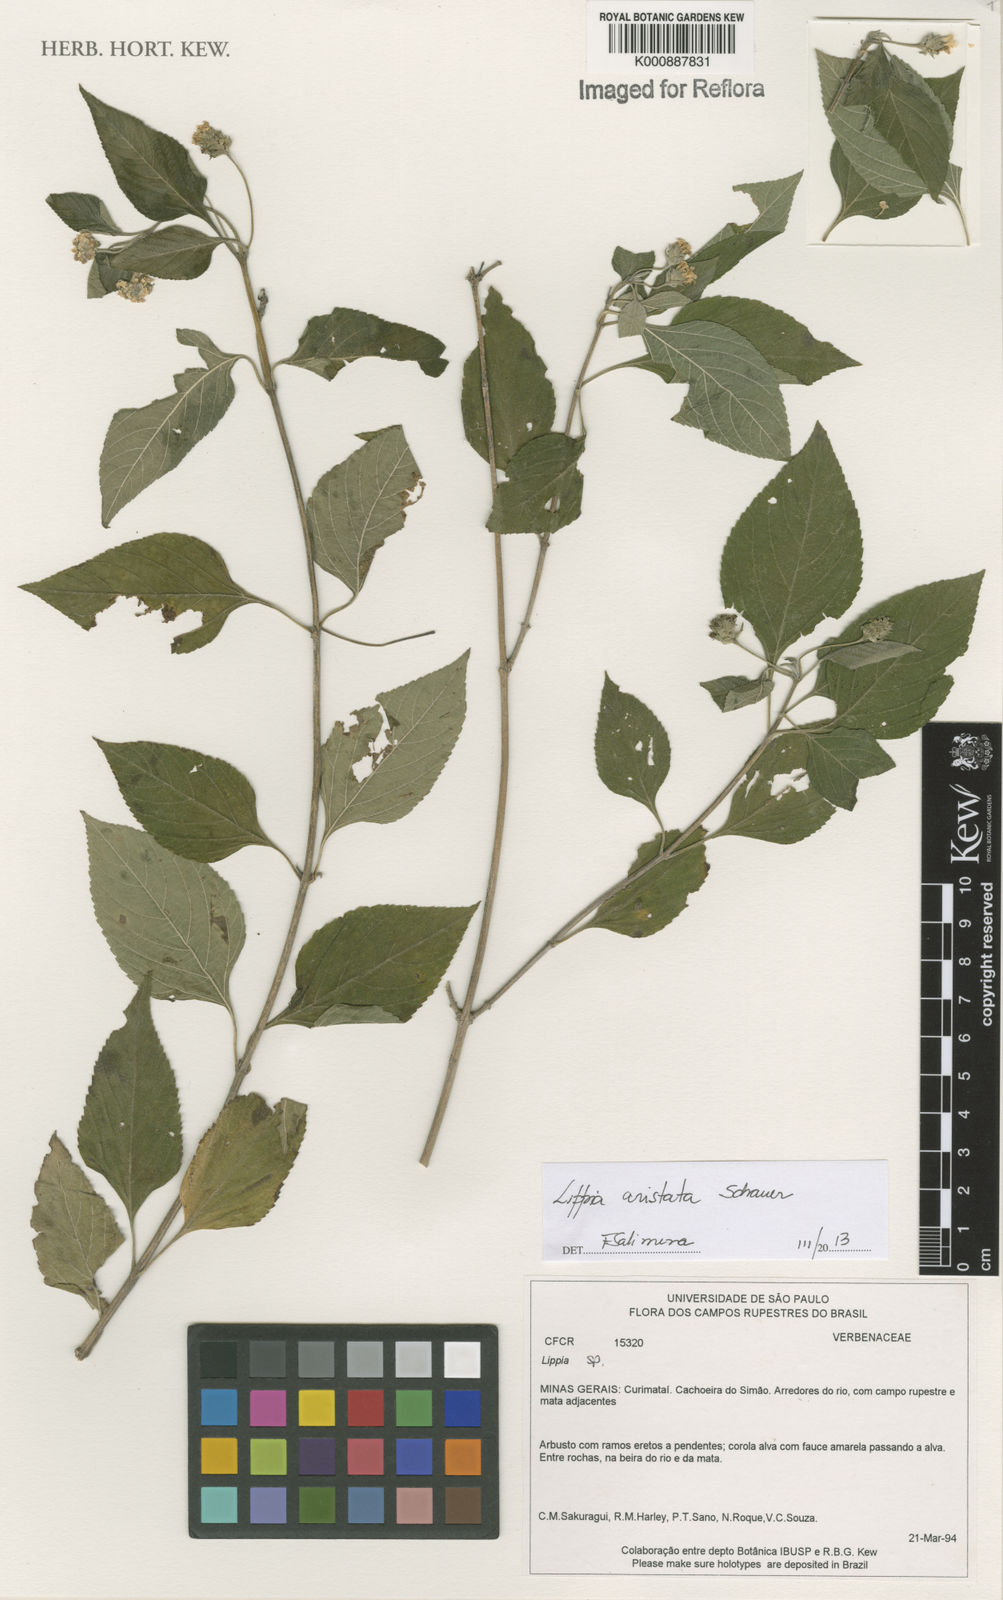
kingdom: Plantae
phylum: Tracheophyta
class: Magnoliopsida
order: Lamiales
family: Verbenaceae
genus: Lippia
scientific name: Lippia aristata
